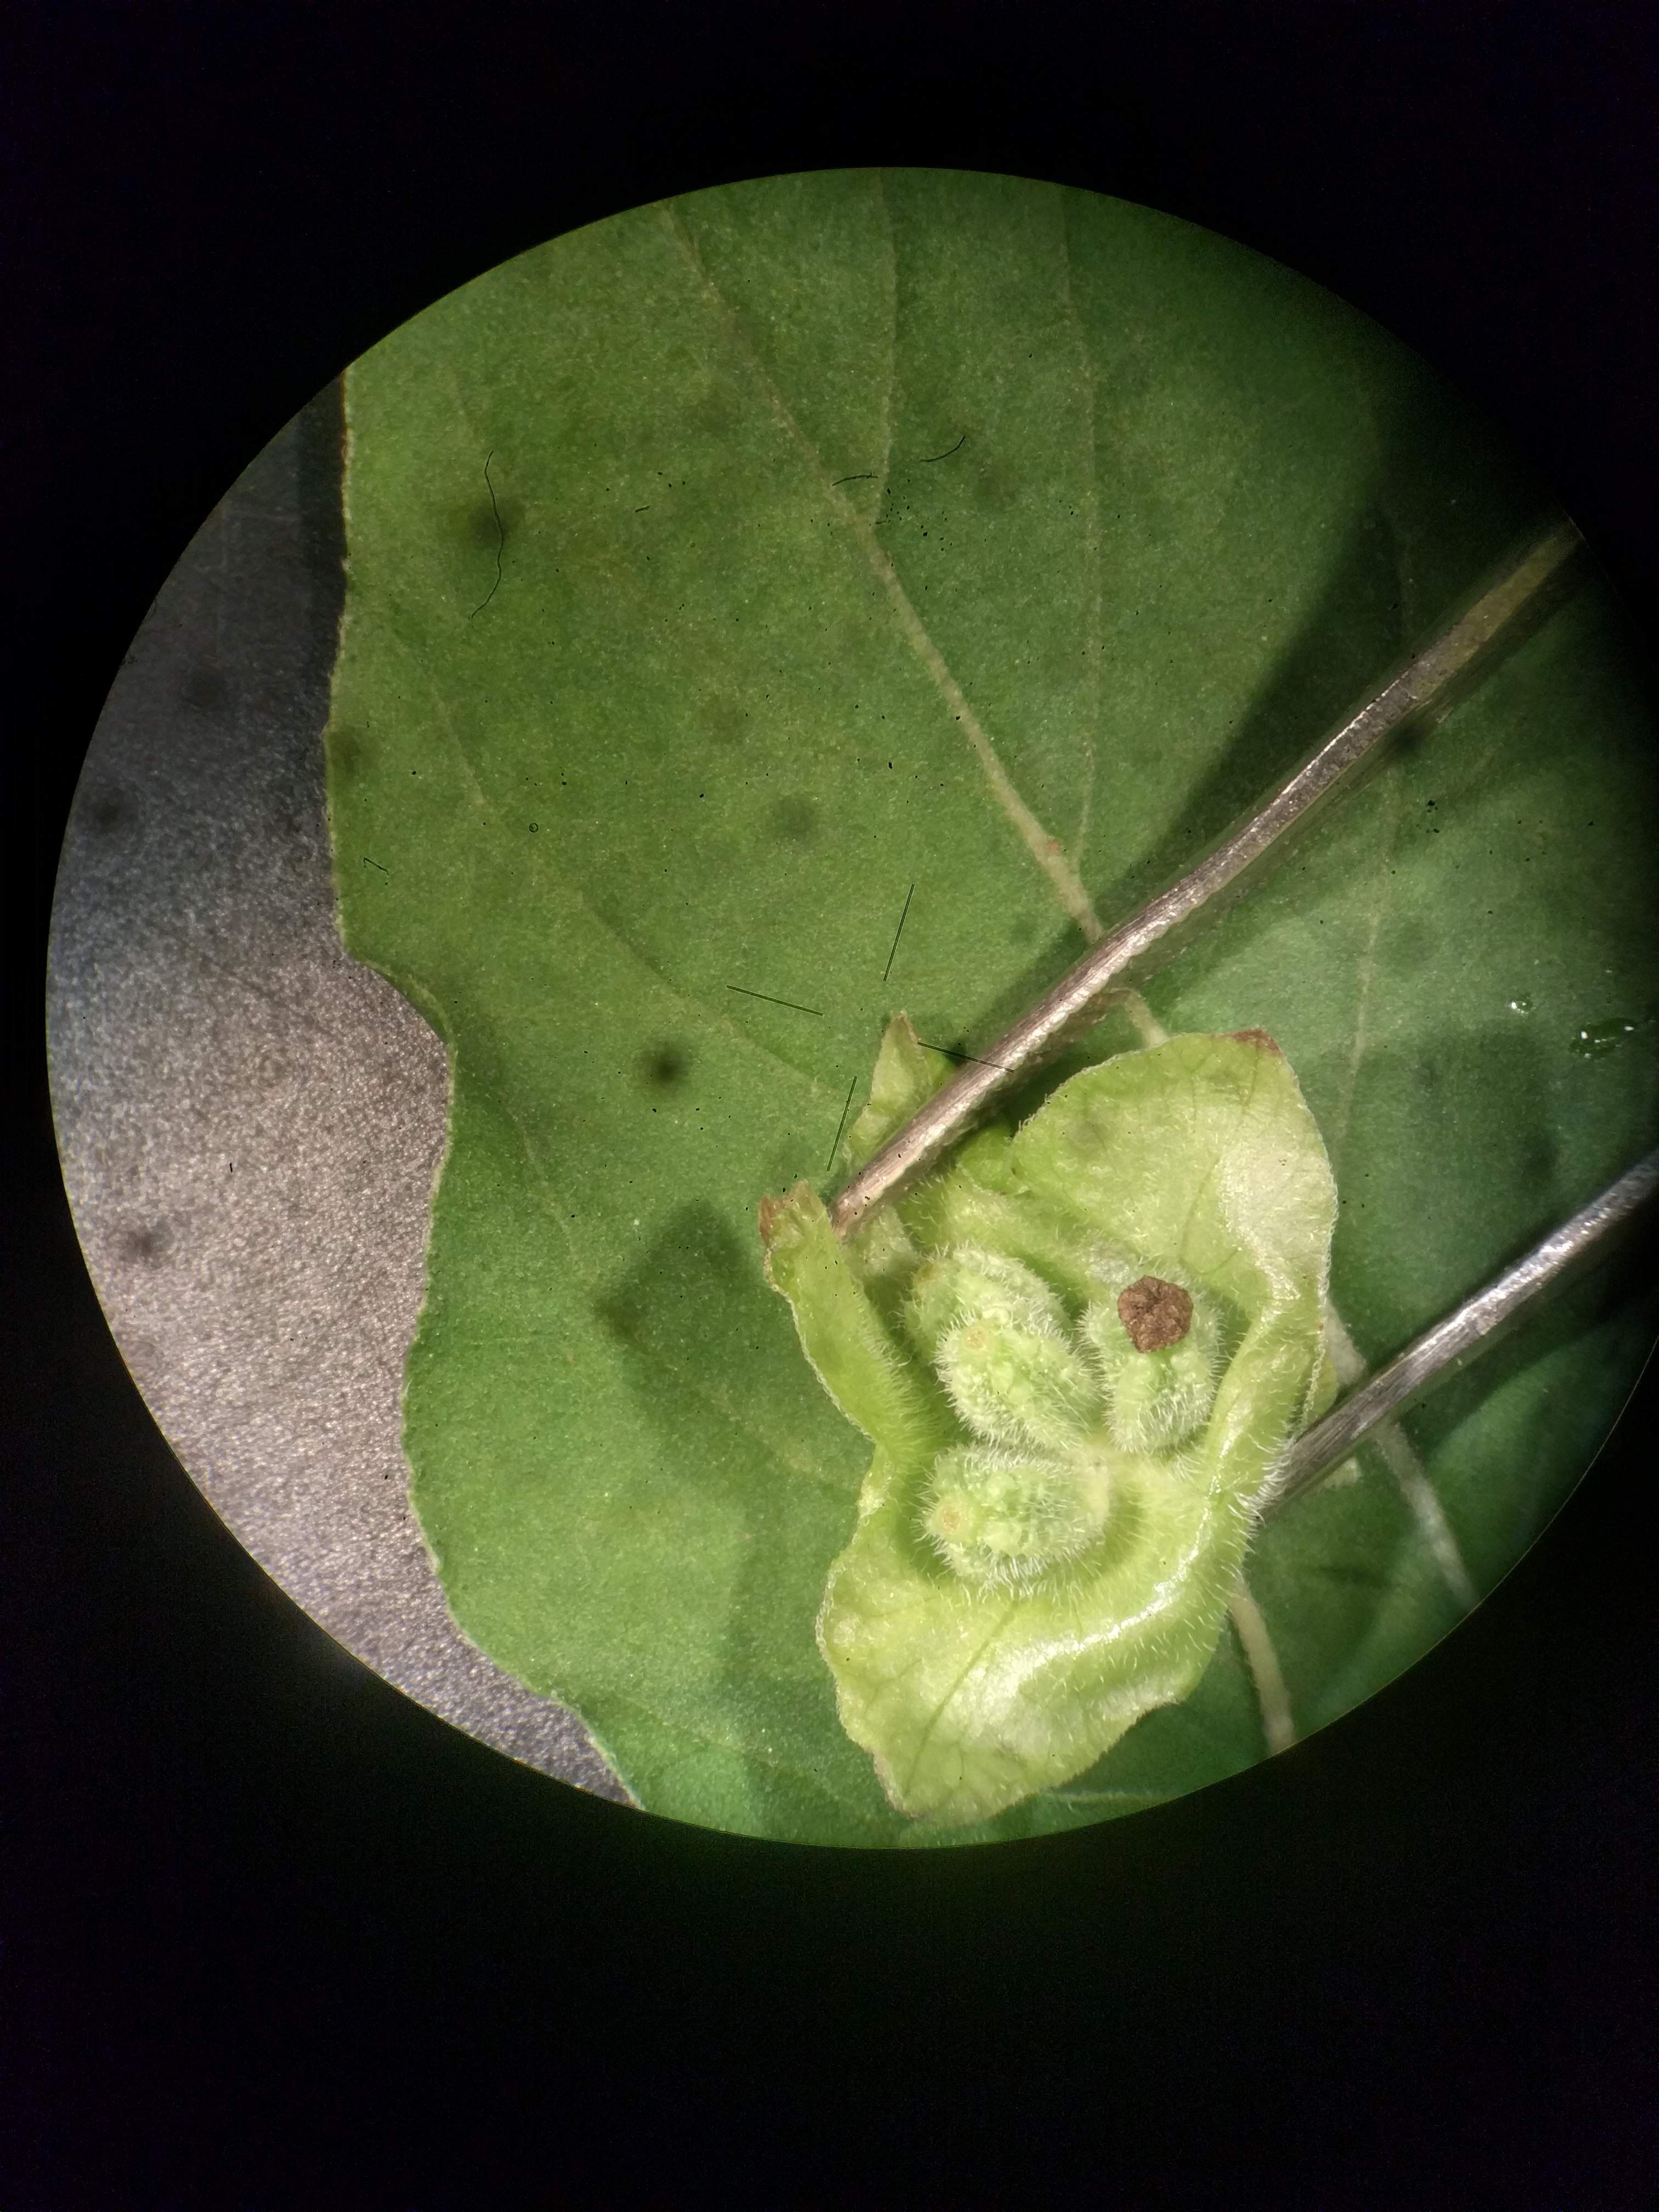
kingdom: Plantae
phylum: Tracheophyta
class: Magnoliopsida
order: Caryophyllales
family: Nyctaginaceae
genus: Mirabilis
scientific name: Mirabilis nyctaginea
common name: Umbrella wort
